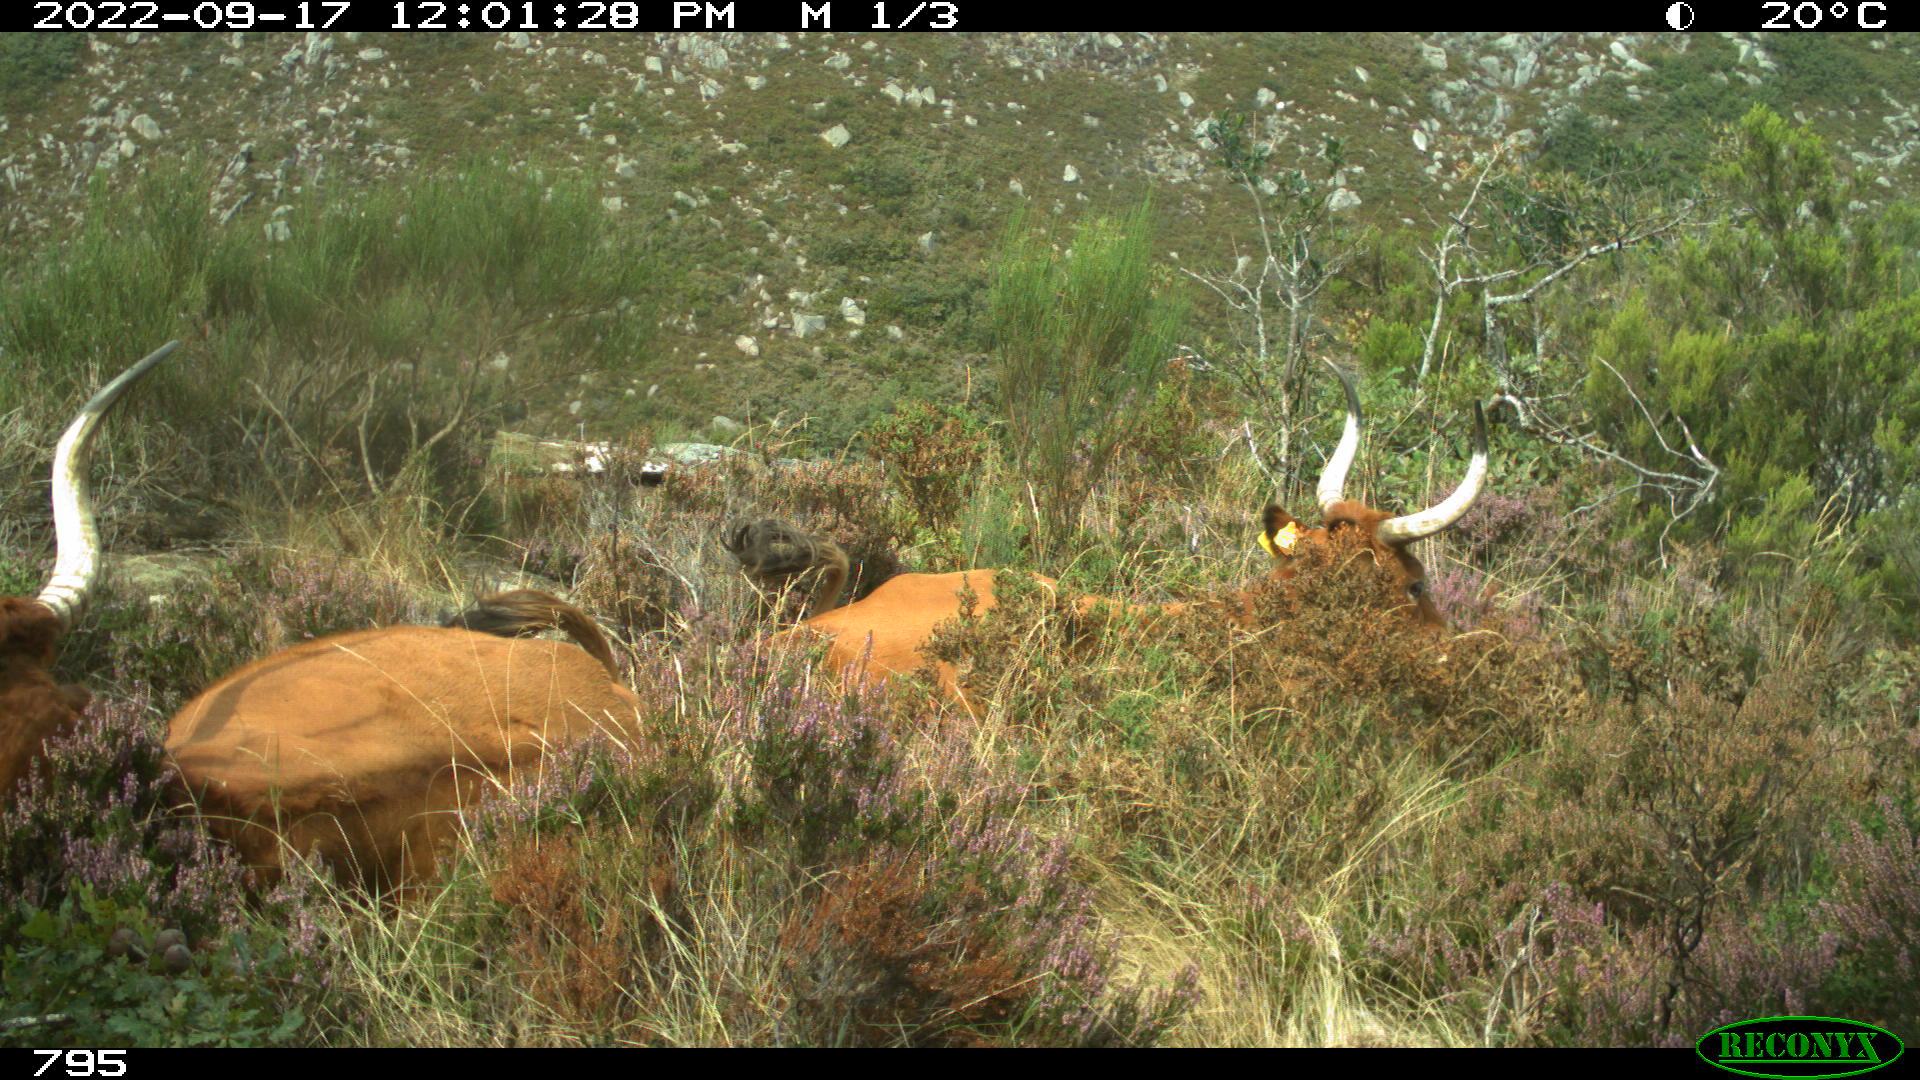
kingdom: Animalia
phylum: Chordata
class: Mammalia
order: Artiodactyla
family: Bovidae
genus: Bos
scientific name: Bos taurus
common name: Domesticated cattle
